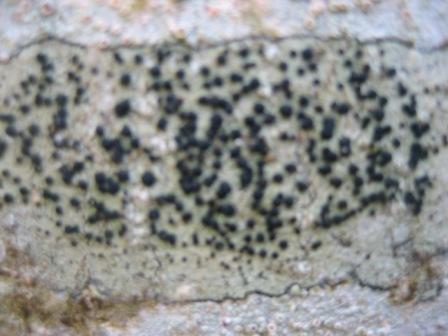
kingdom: Fungi
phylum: Ascomycota
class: Lecanoromycetes
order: Lecanorales
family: Lecanoraceae
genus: Lecidella
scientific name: Lecidella elaeochroma
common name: grågrøn skivelav
